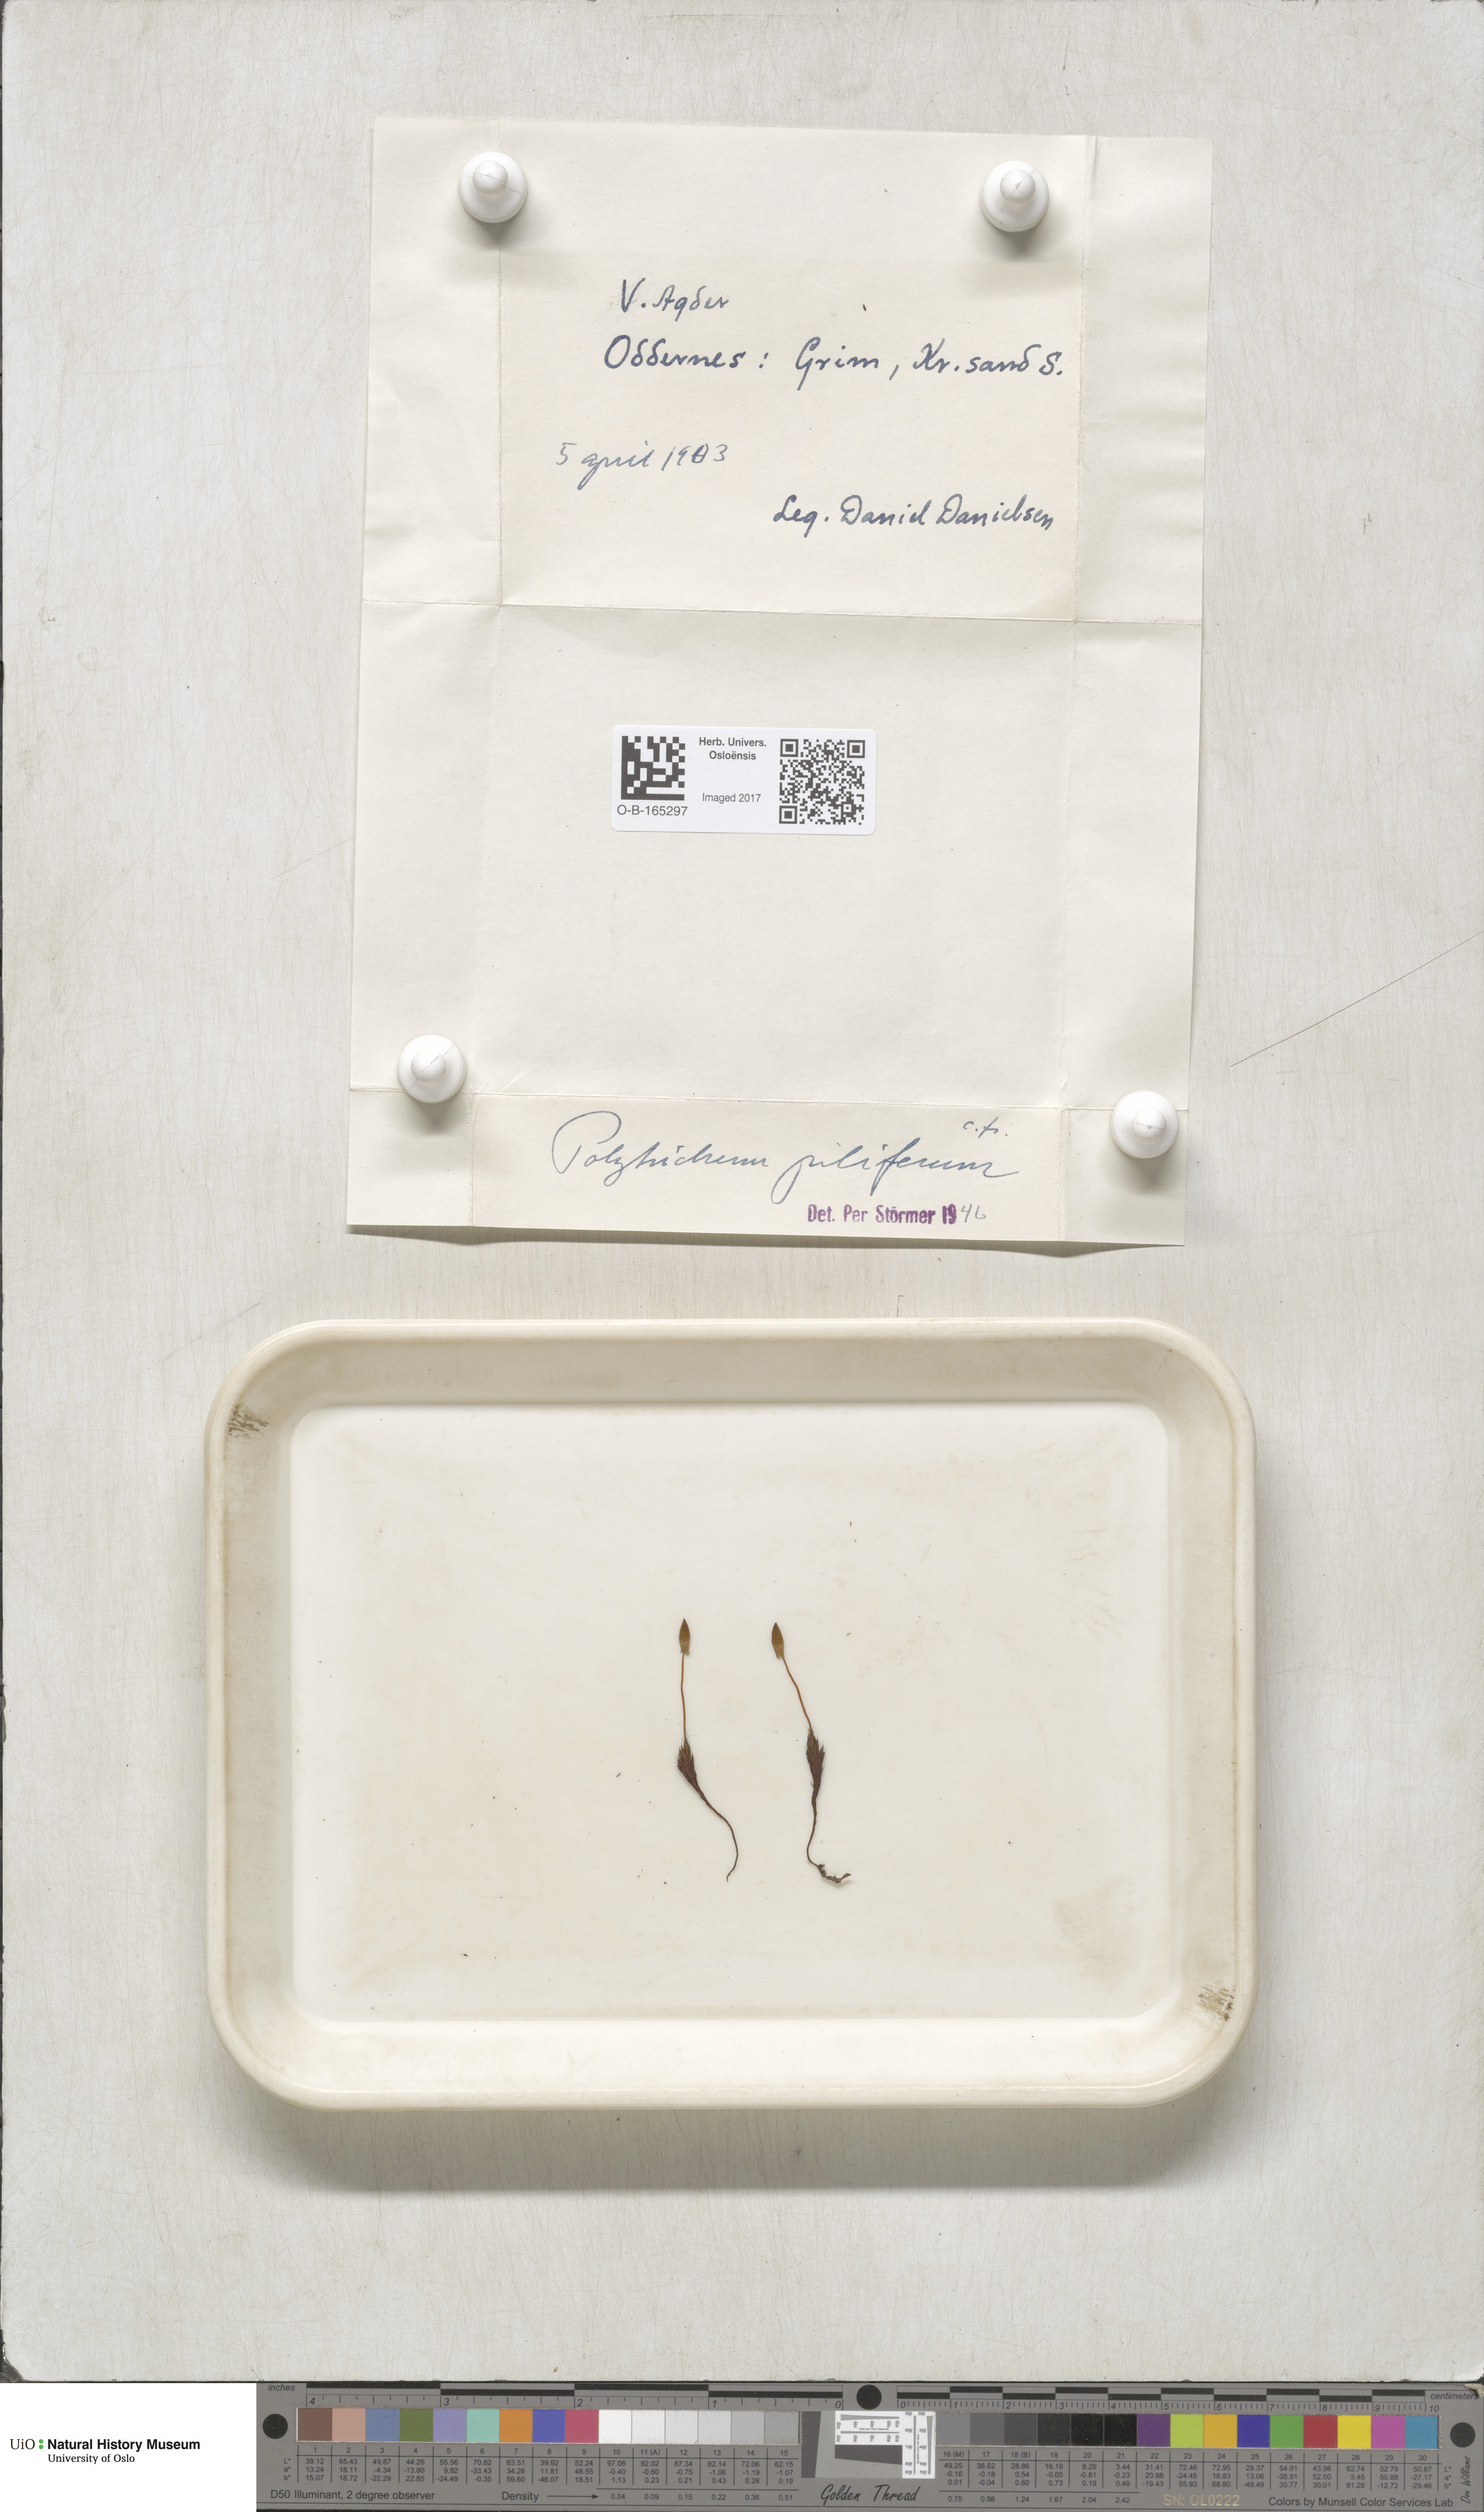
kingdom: Plantae
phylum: Bryophyta
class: Polytrichopsida
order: Polytrichales
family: Polytrichaceae
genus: Polytrichum
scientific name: Polytrichum piliferum
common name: Bristly haircap
